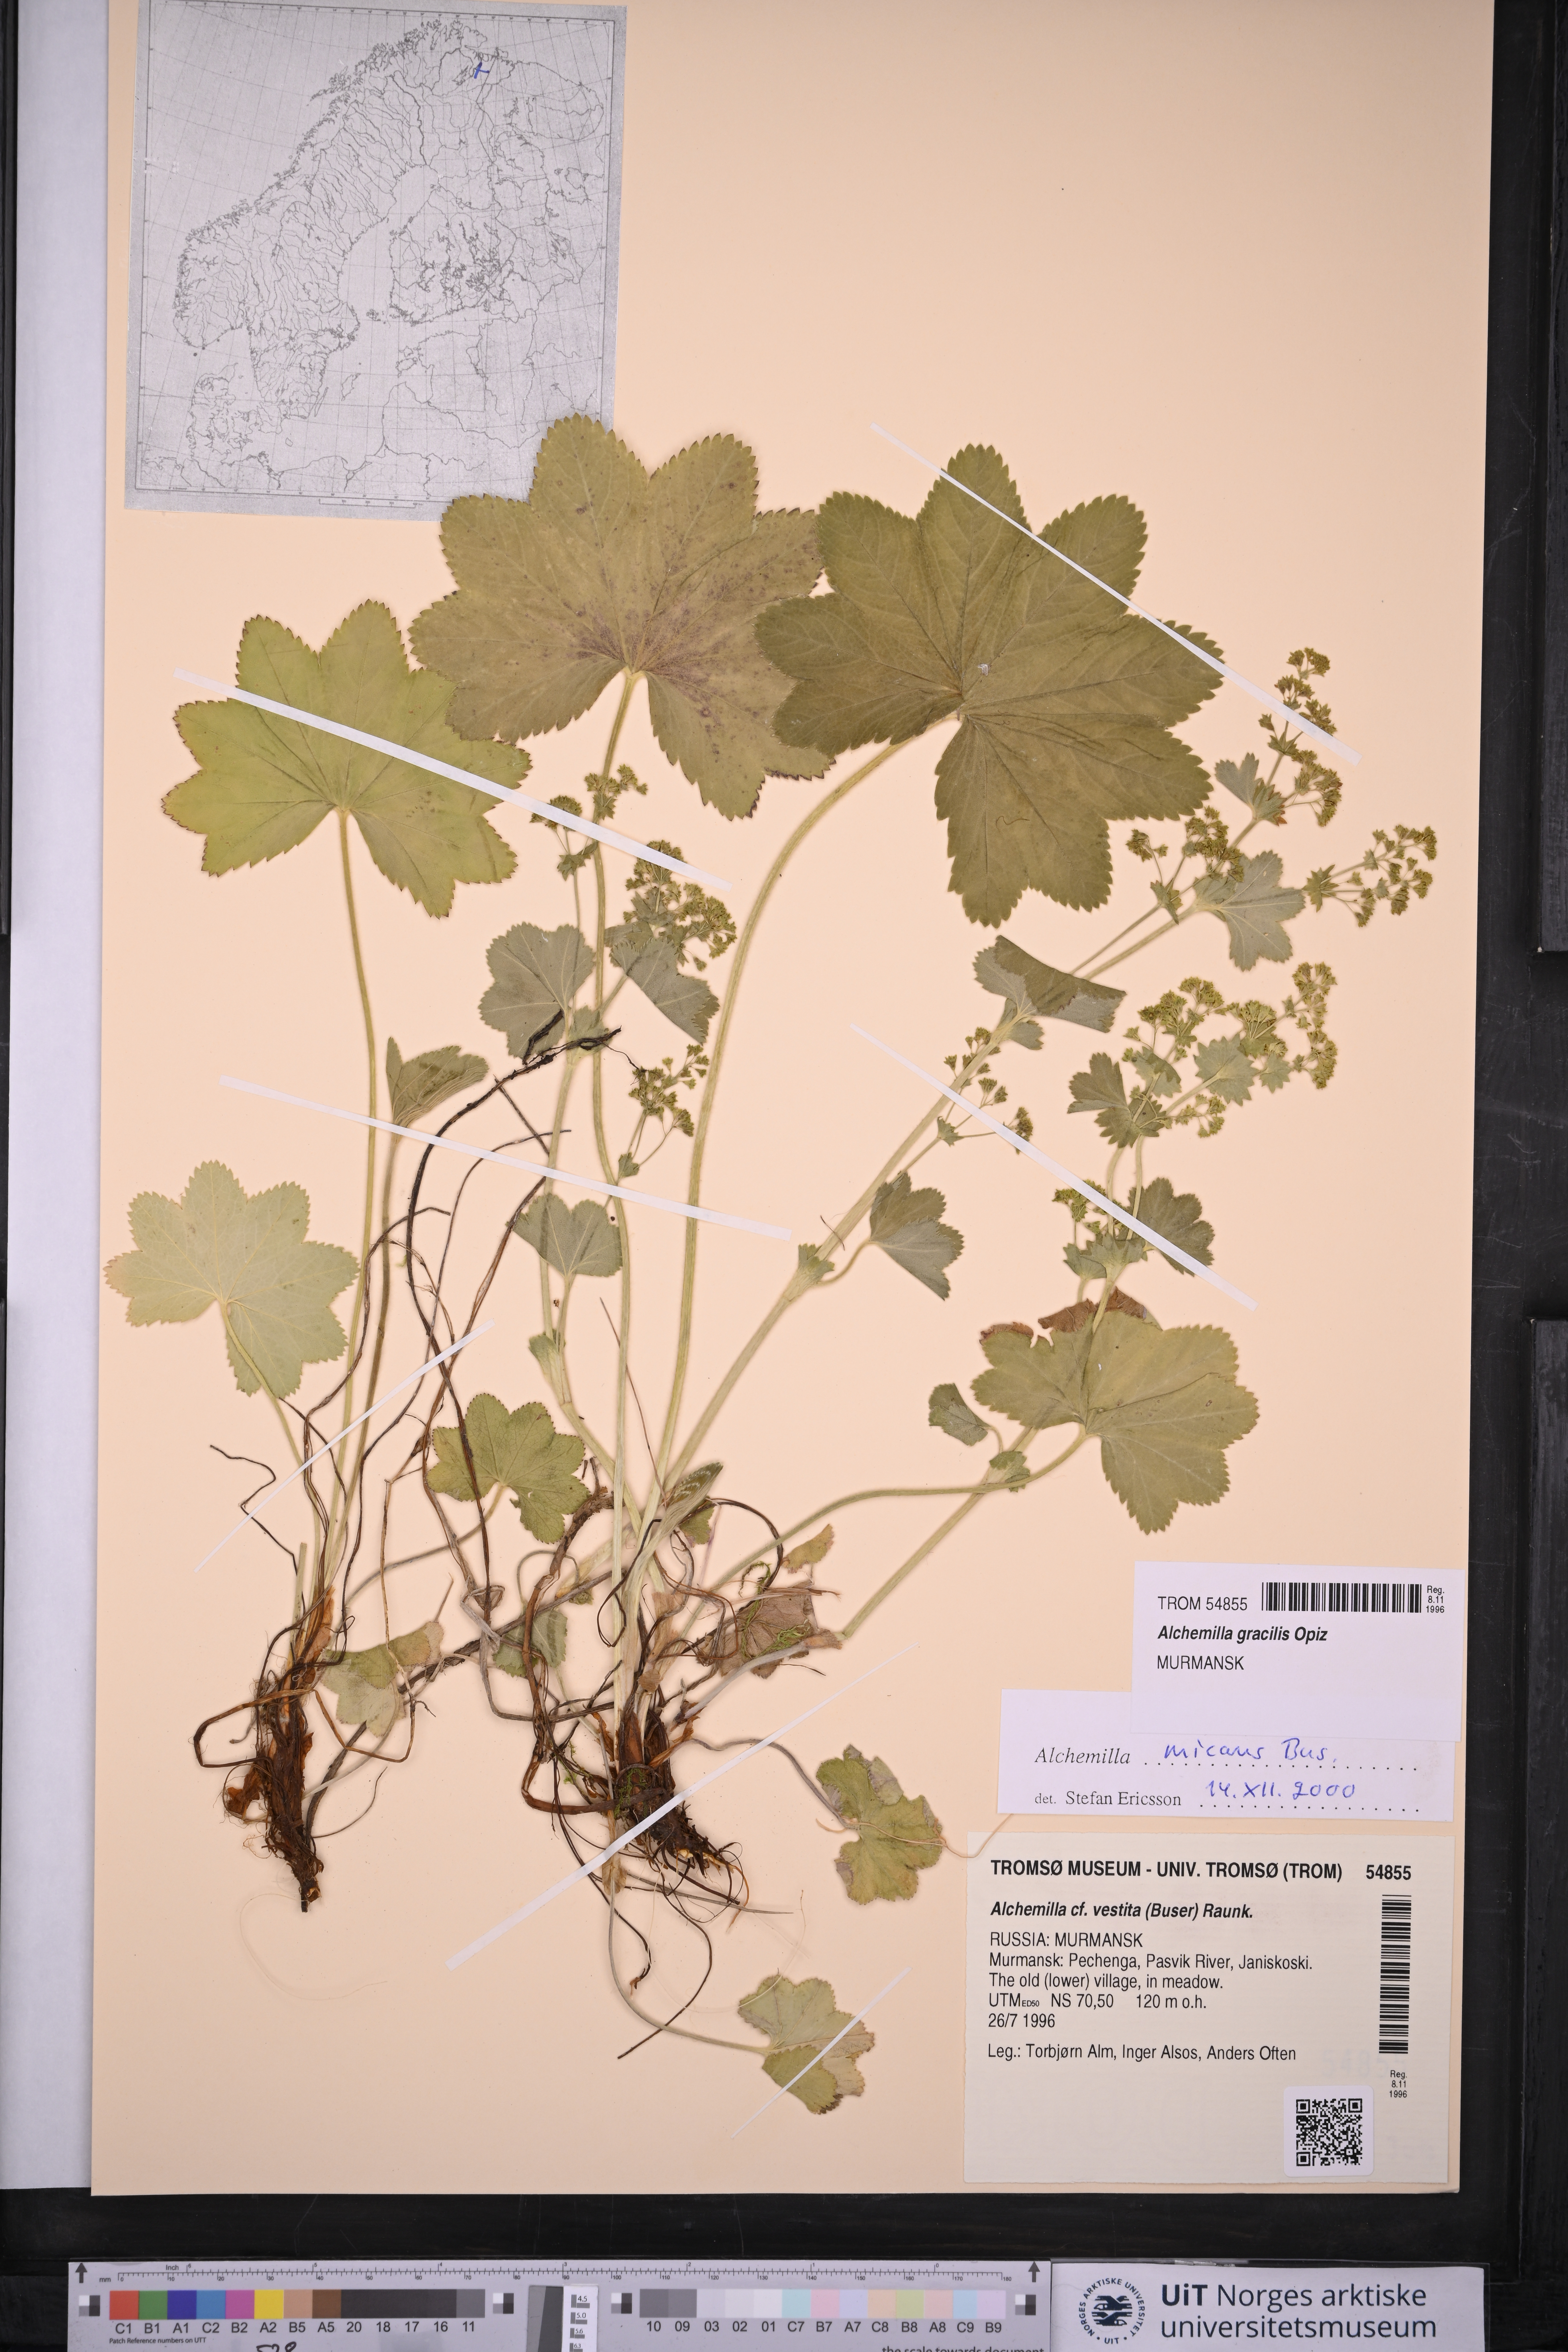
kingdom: Plantae
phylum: Tracheophyta
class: Magnoliopsida
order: Rosales
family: Rosaceae
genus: Alchemilla
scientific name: Alchemilla micans
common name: Gleaming lady's mantle
